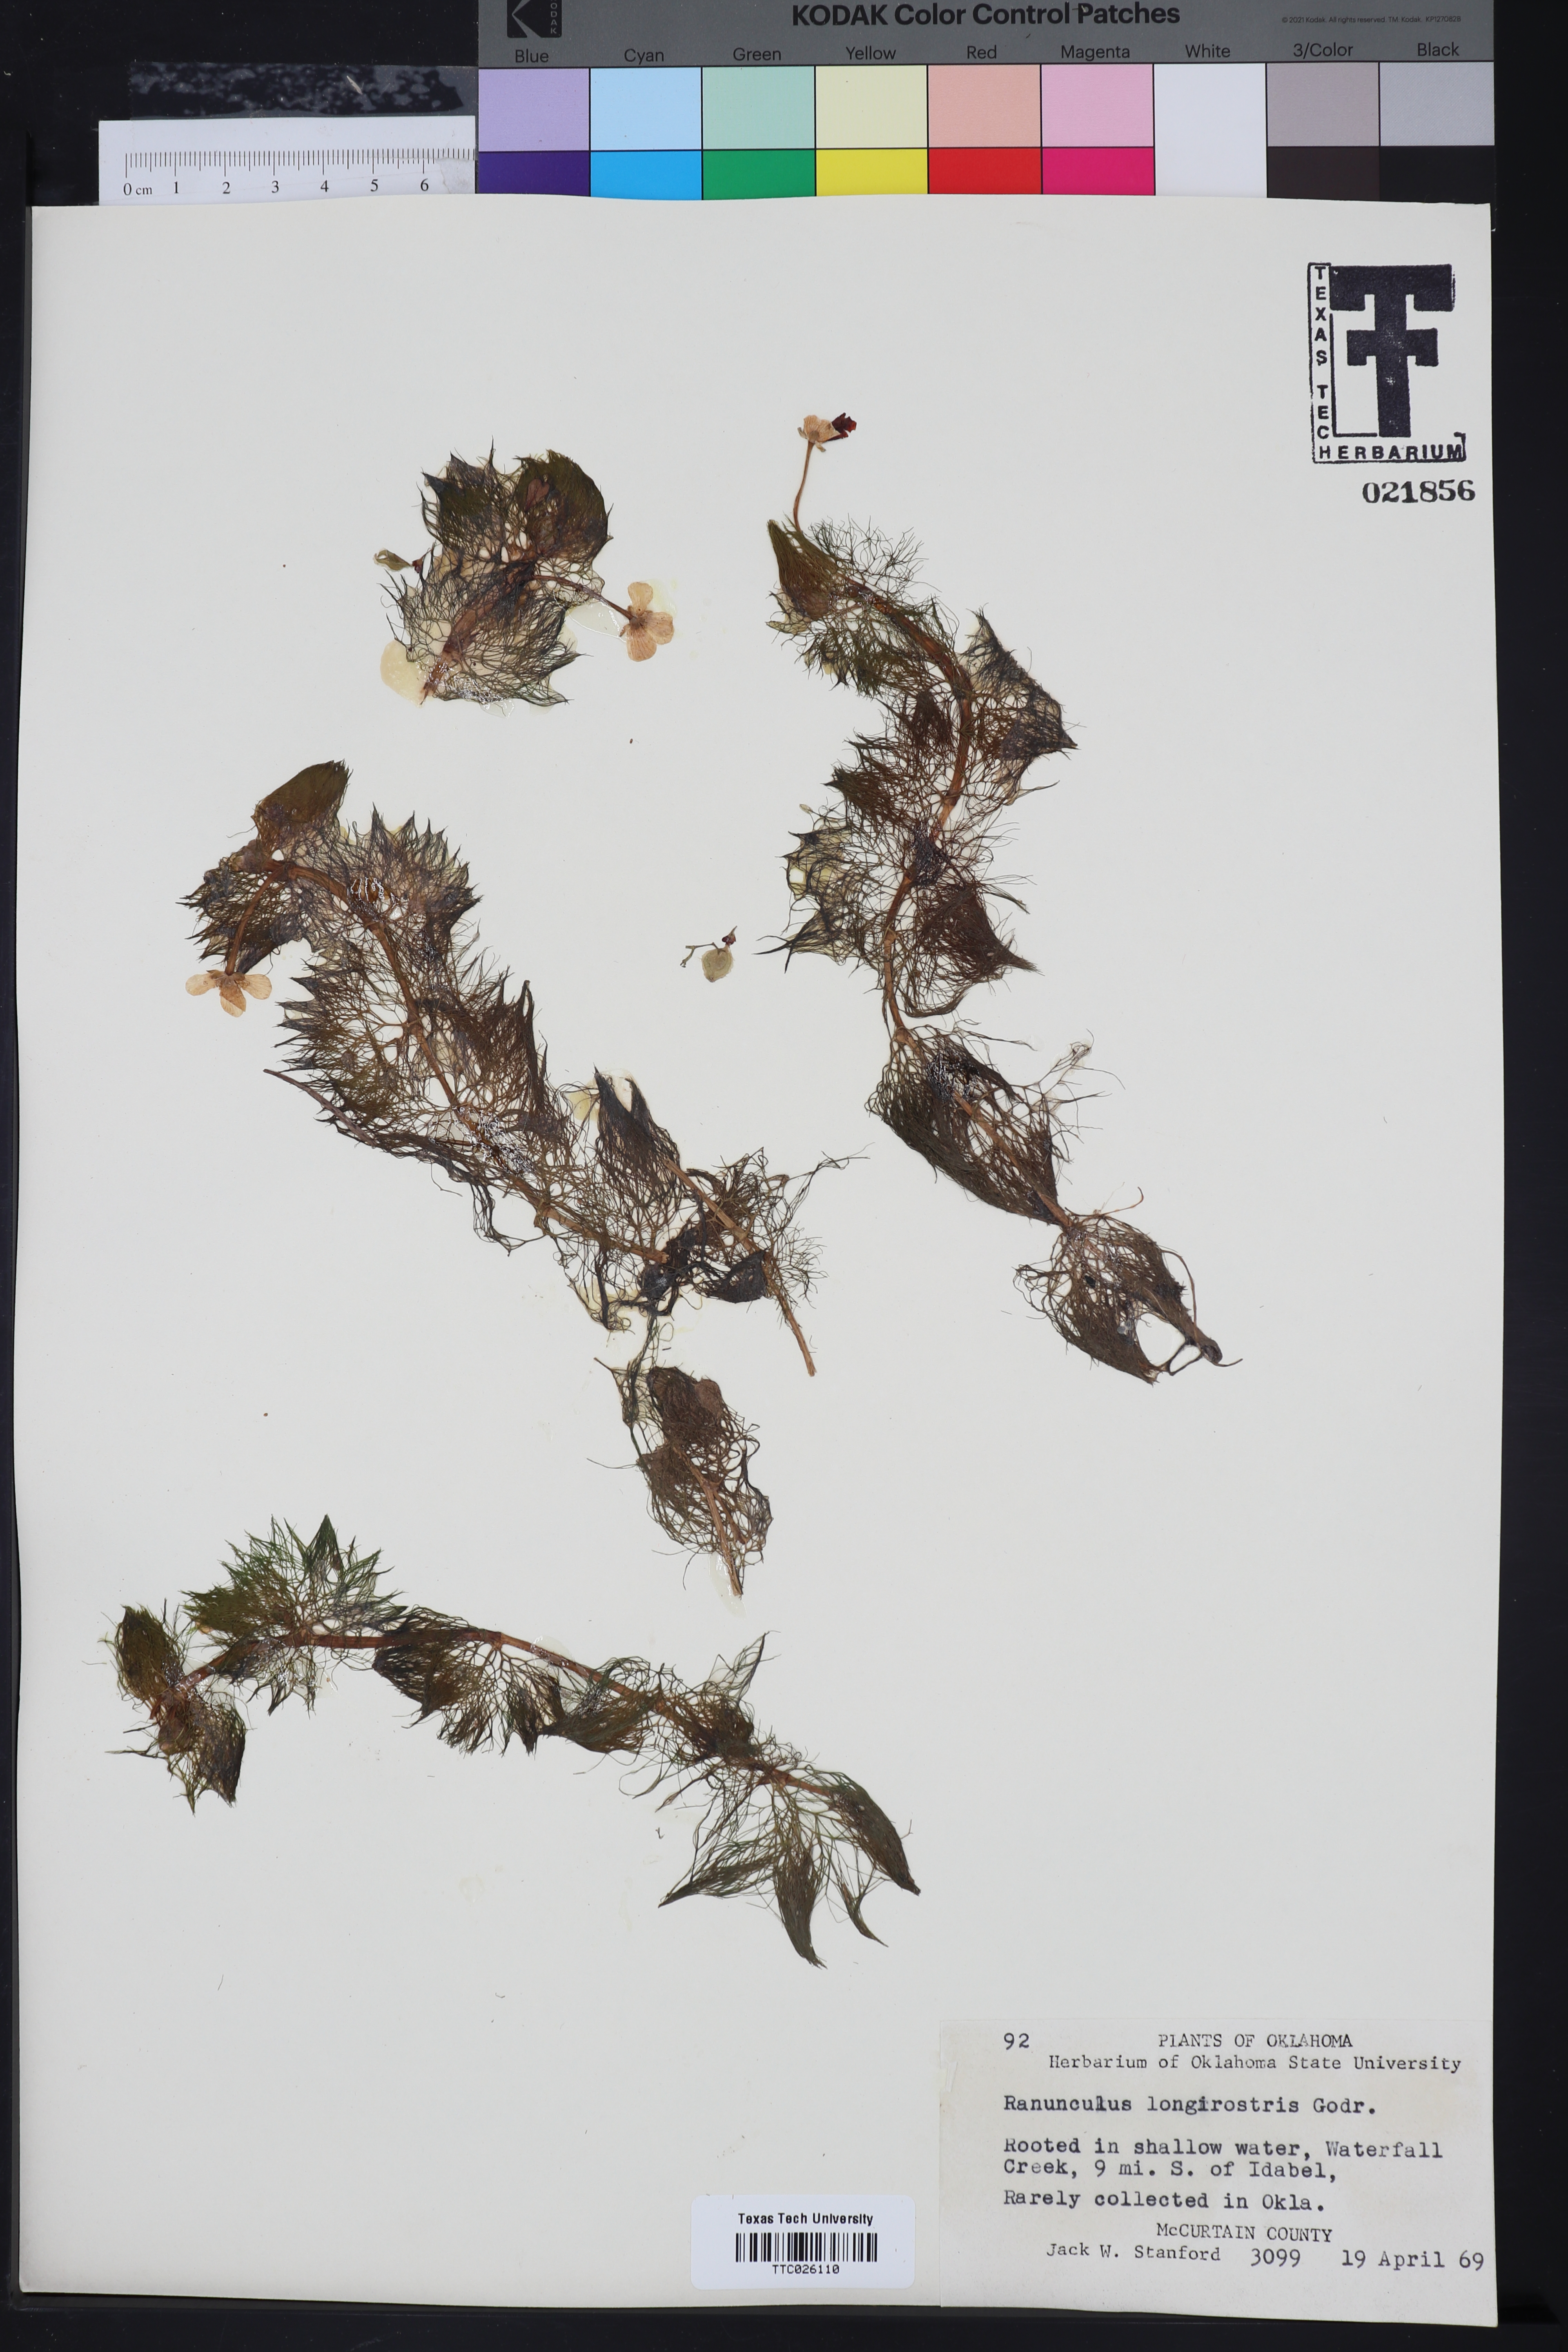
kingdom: Plantae
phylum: Tracheophyta
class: Magnoliopsida
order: Ranunculales
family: Ranunculaceae
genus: Ranunculus
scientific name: Ranunculus longirostris
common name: Curly white water-crowfoot
